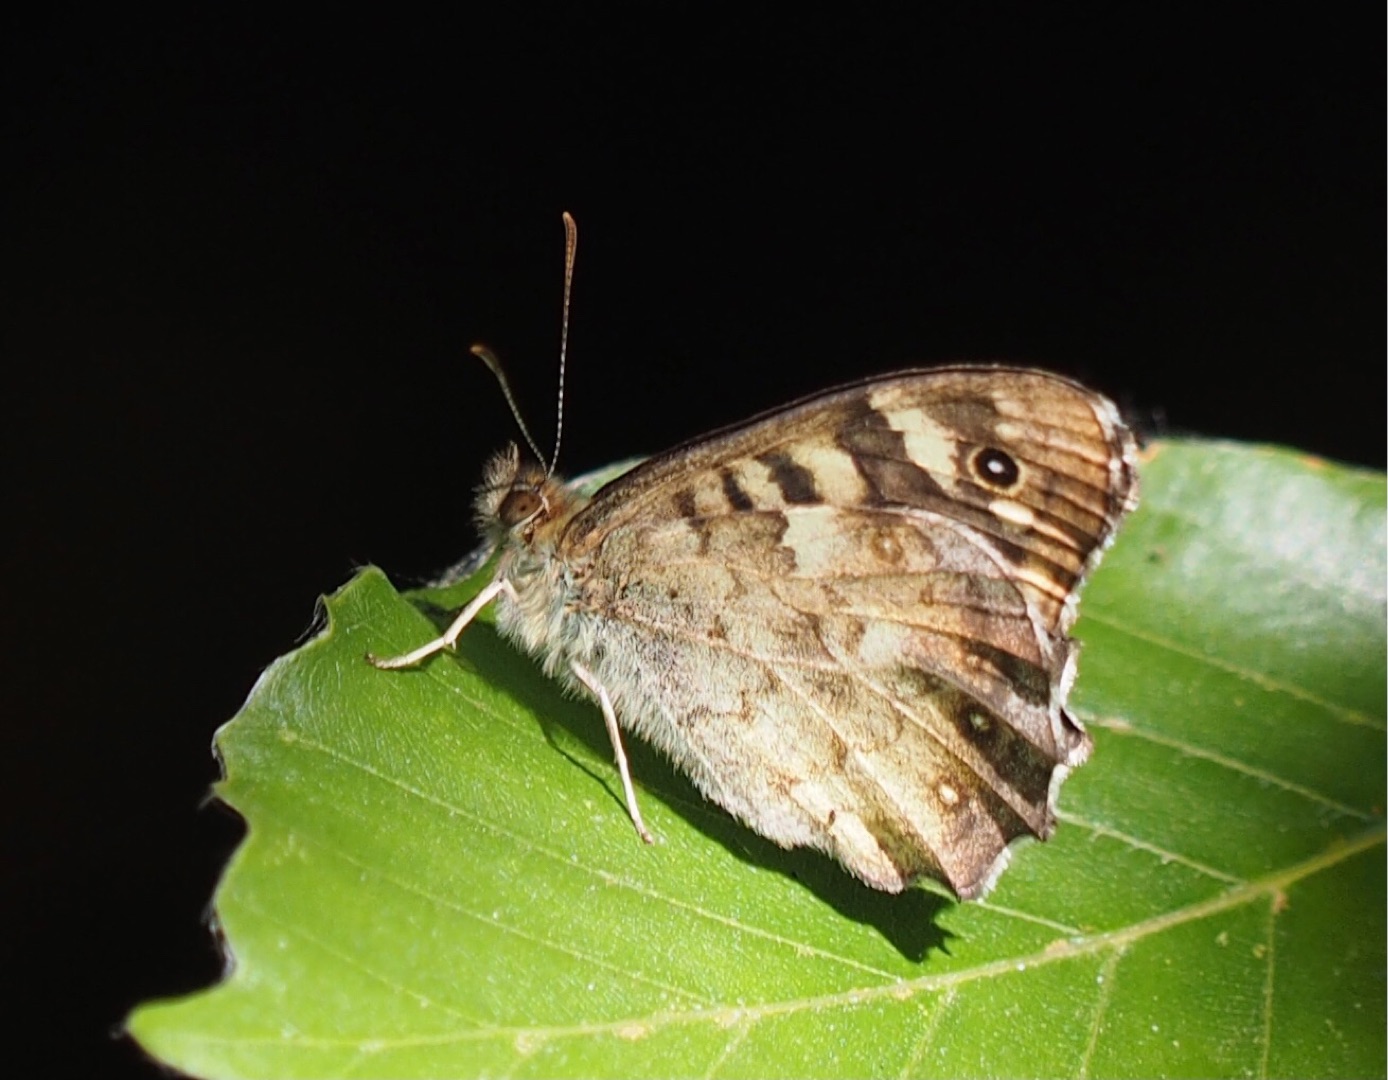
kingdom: Animalia
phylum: Arthropoda
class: Insecta
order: Lepidoptera
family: Nymphalidae
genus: Pararge
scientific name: Pararge aegeria
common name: Skovrandøje
